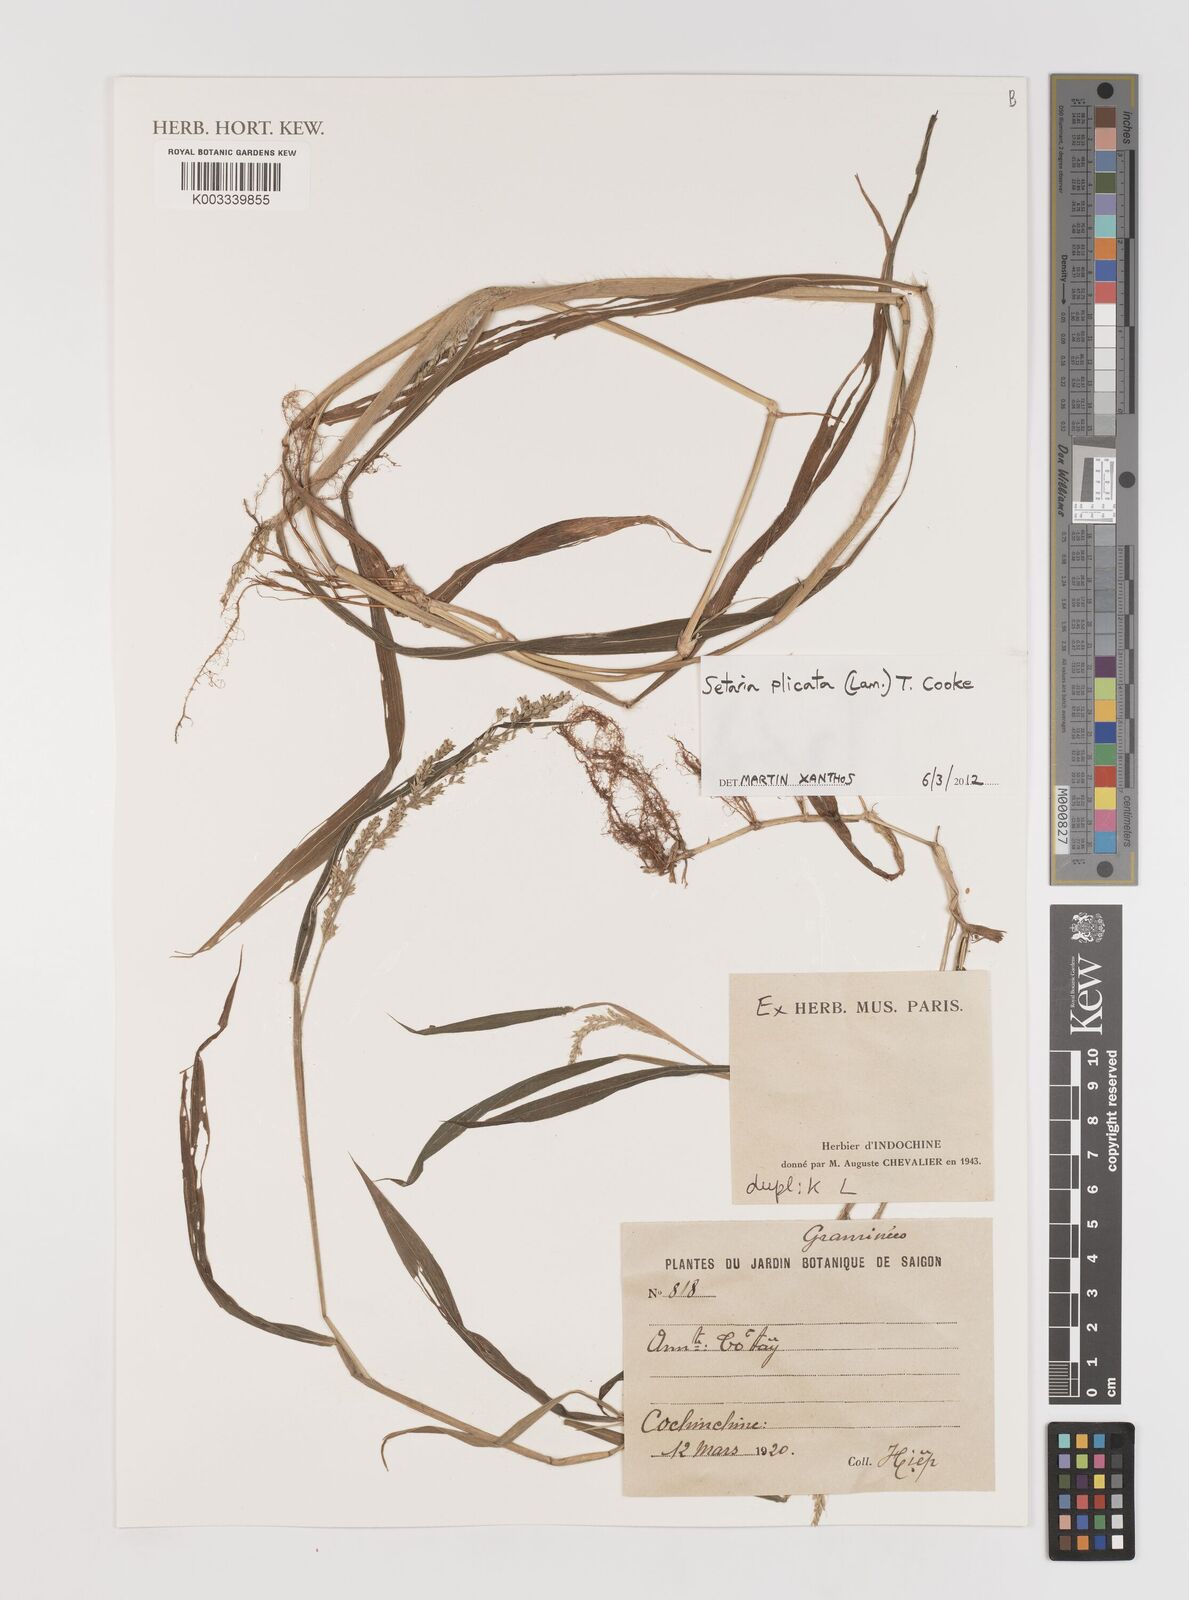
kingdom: Plantae
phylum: Tracheophyta
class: Liliopsida
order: Poales
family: Poaceae
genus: Setaria
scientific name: Setaria plicata
